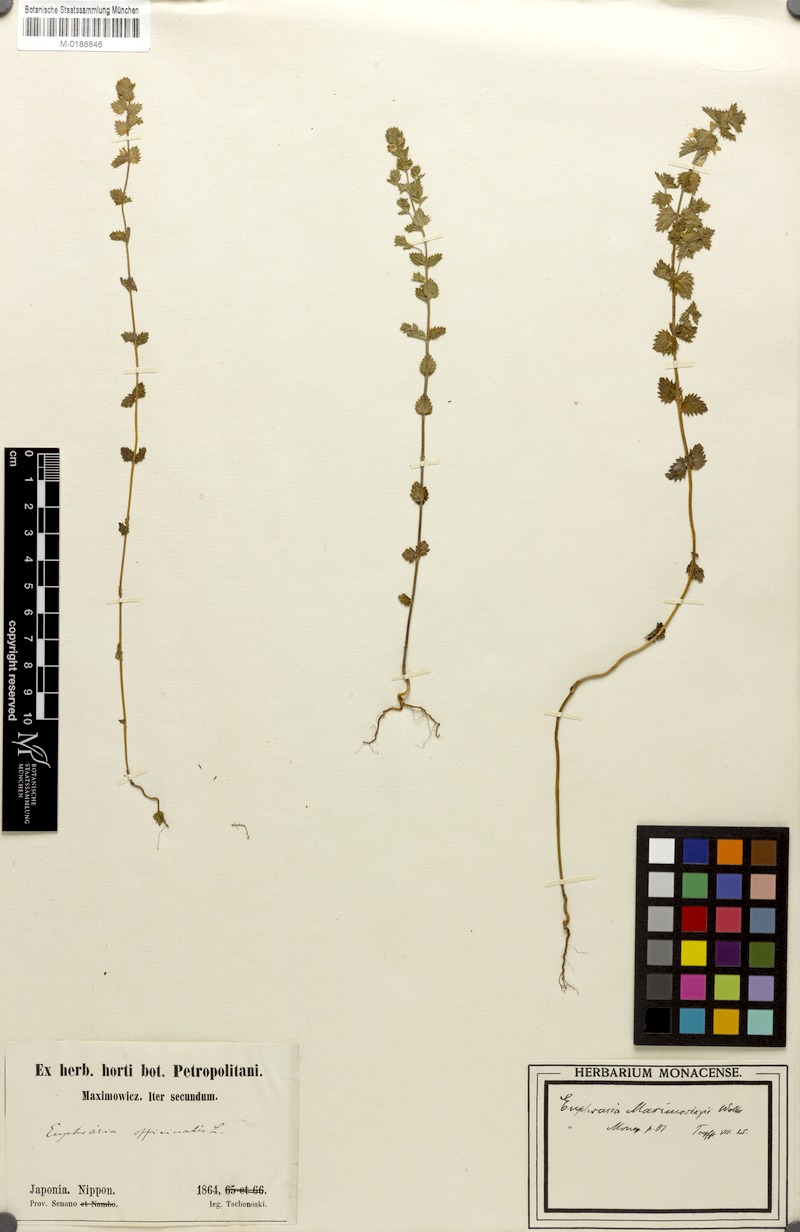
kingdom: Plantae
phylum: Tracheophyta
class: Magnoliopsida
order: Lamiales
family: Orobanchaceae
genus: Euphrasia
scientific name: Euphrasia maximowiczii
